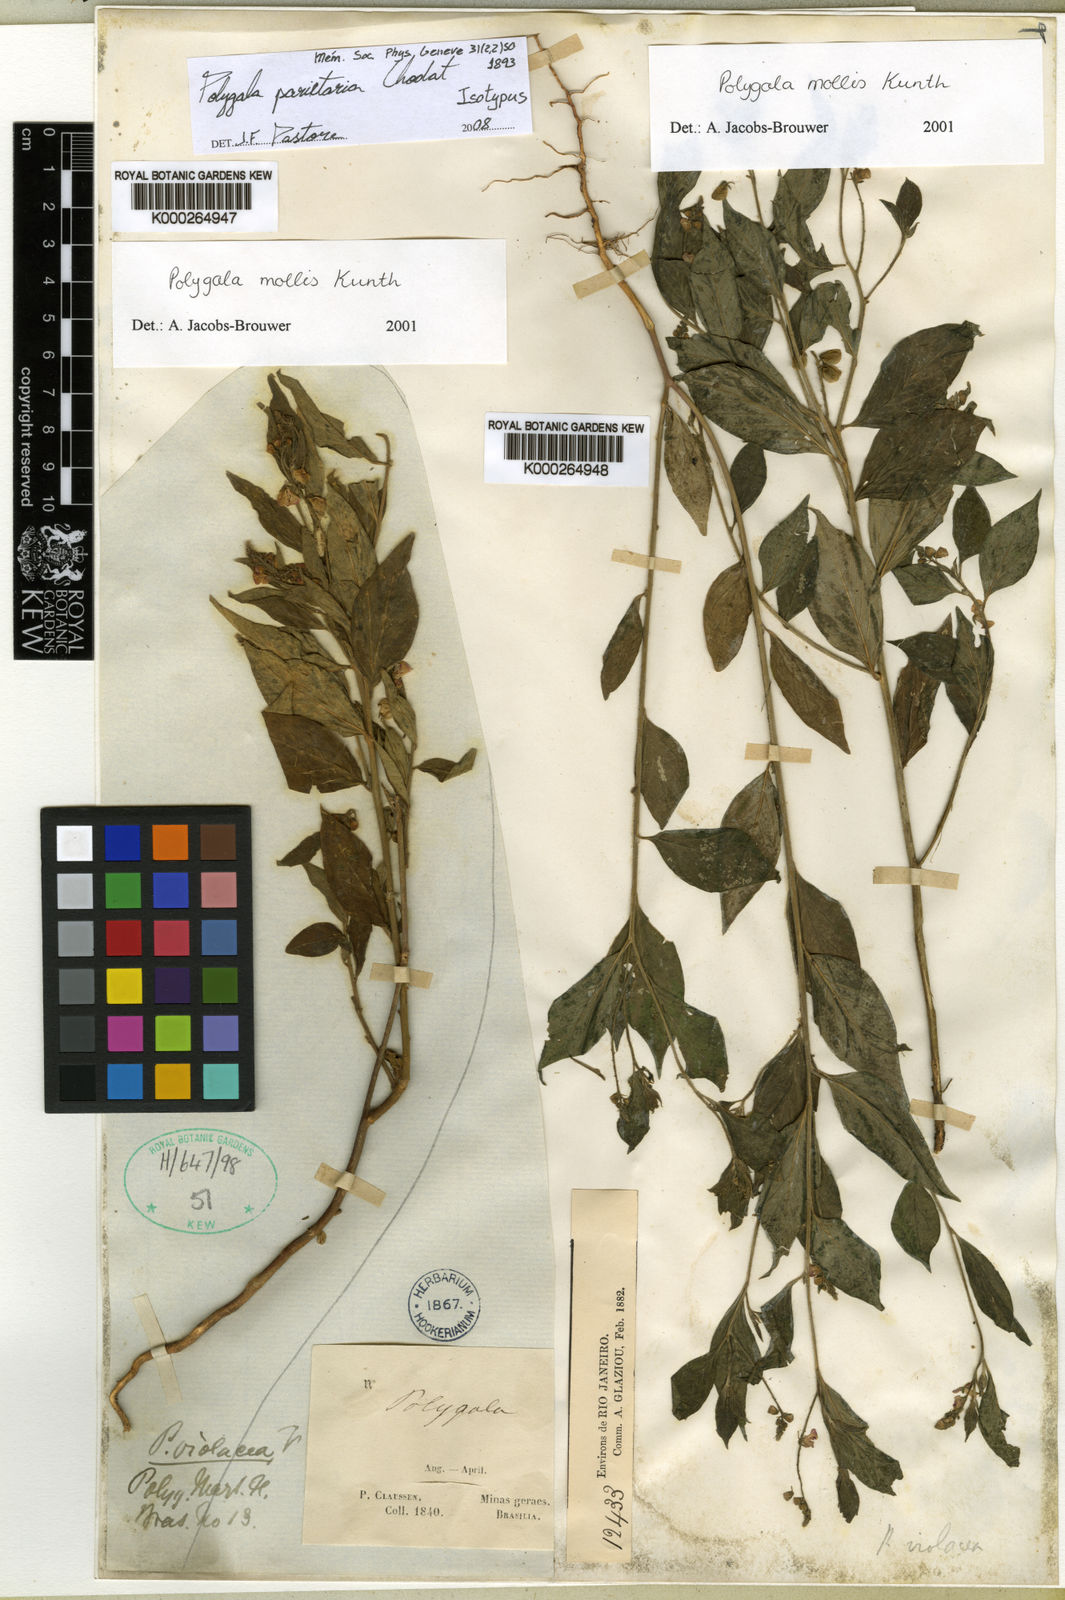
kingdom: Plantae
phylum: Tracheophyta
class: Magnoliopsida
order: Fabales
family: Polygalaceae
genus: Asemeia
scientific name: Asemeia parietaria
